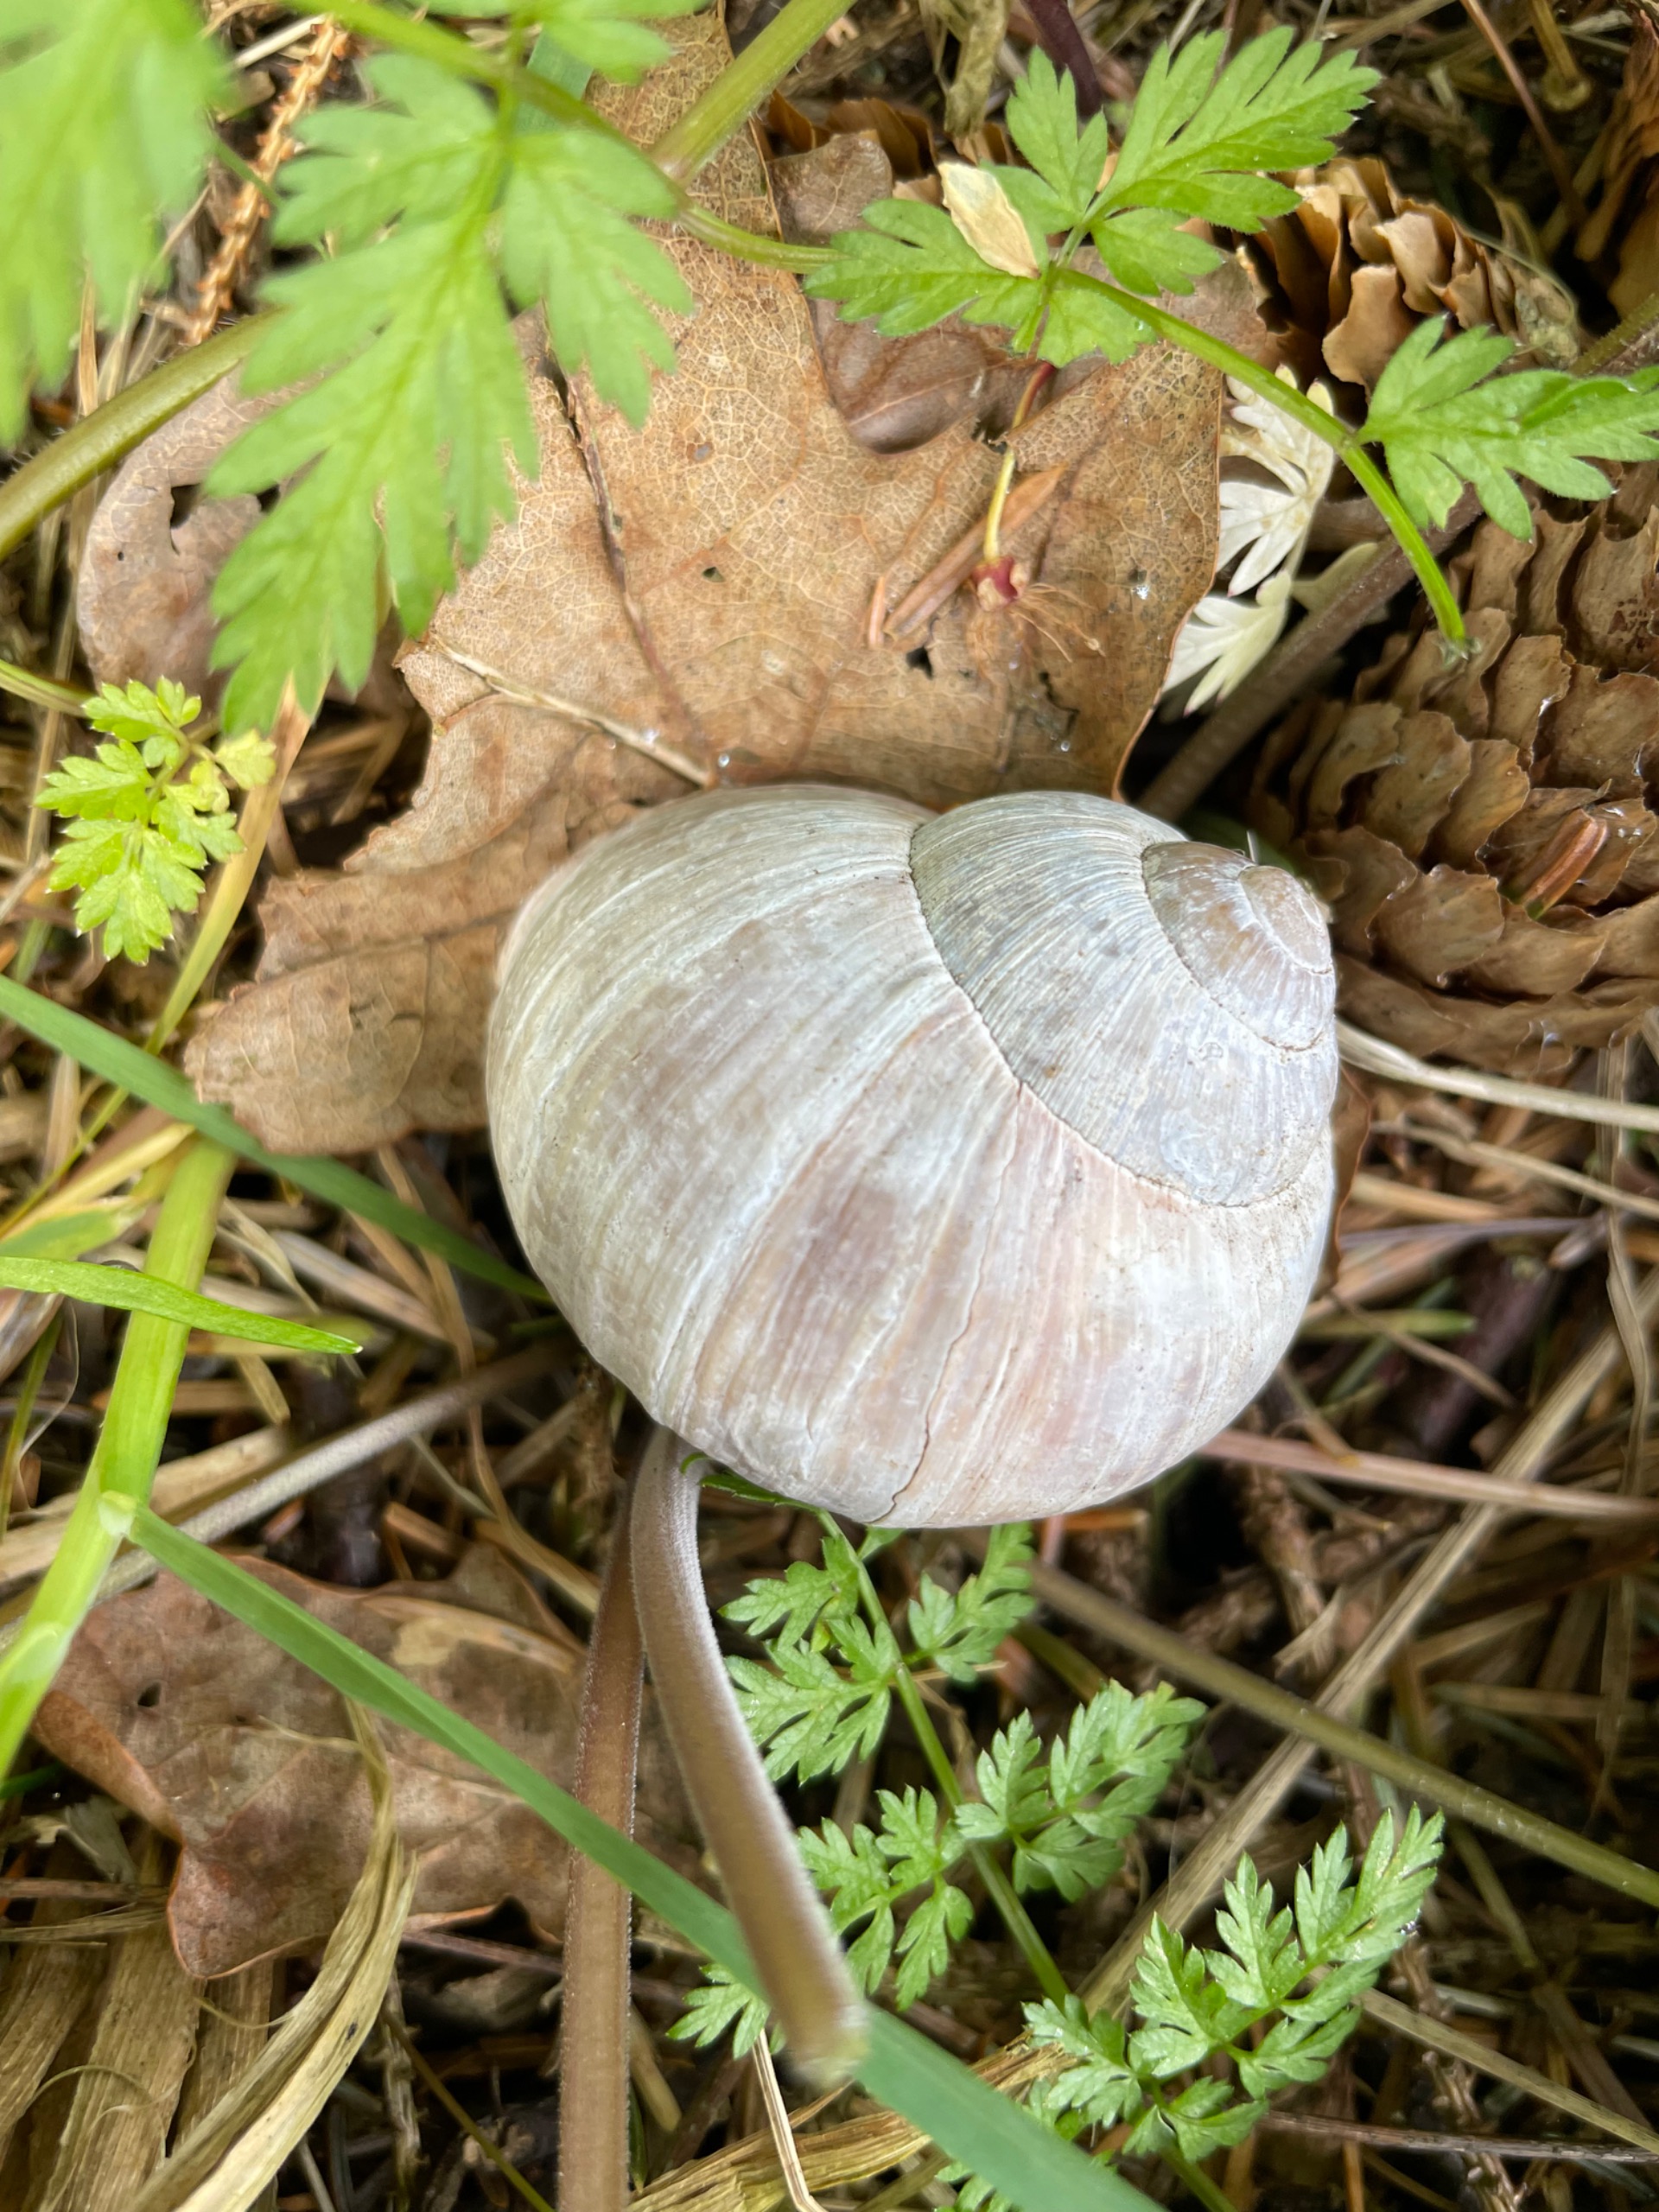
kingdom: Animalia
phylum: Mollusca
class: Gastropoda
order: Stylommatophora
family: Helicidae
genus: Helix
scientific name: Helix pomatia
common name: Vinbjergsnegl
